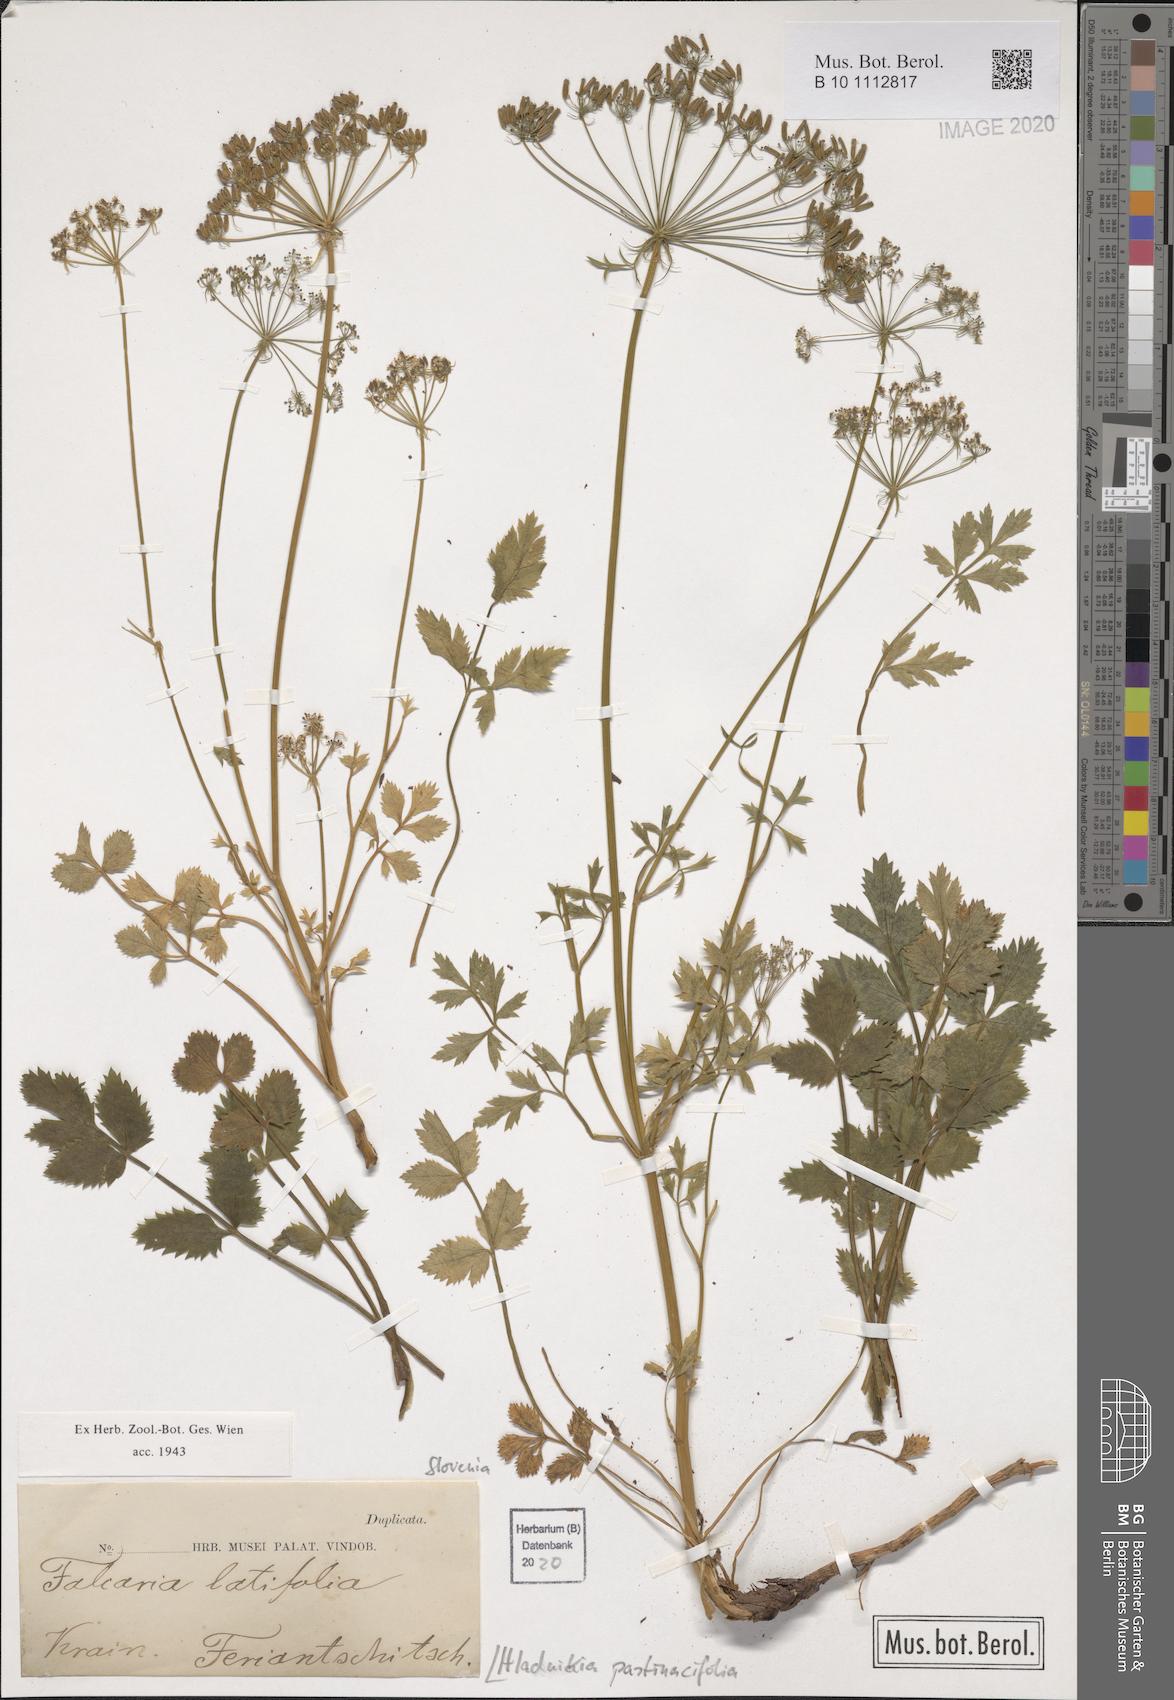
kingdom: Plantae
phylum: Tracheophyta
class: Magnoliopsida
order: Apiales
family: Apiaceae
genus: Hladnikia
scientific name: Hladnikia pastinacifolia
